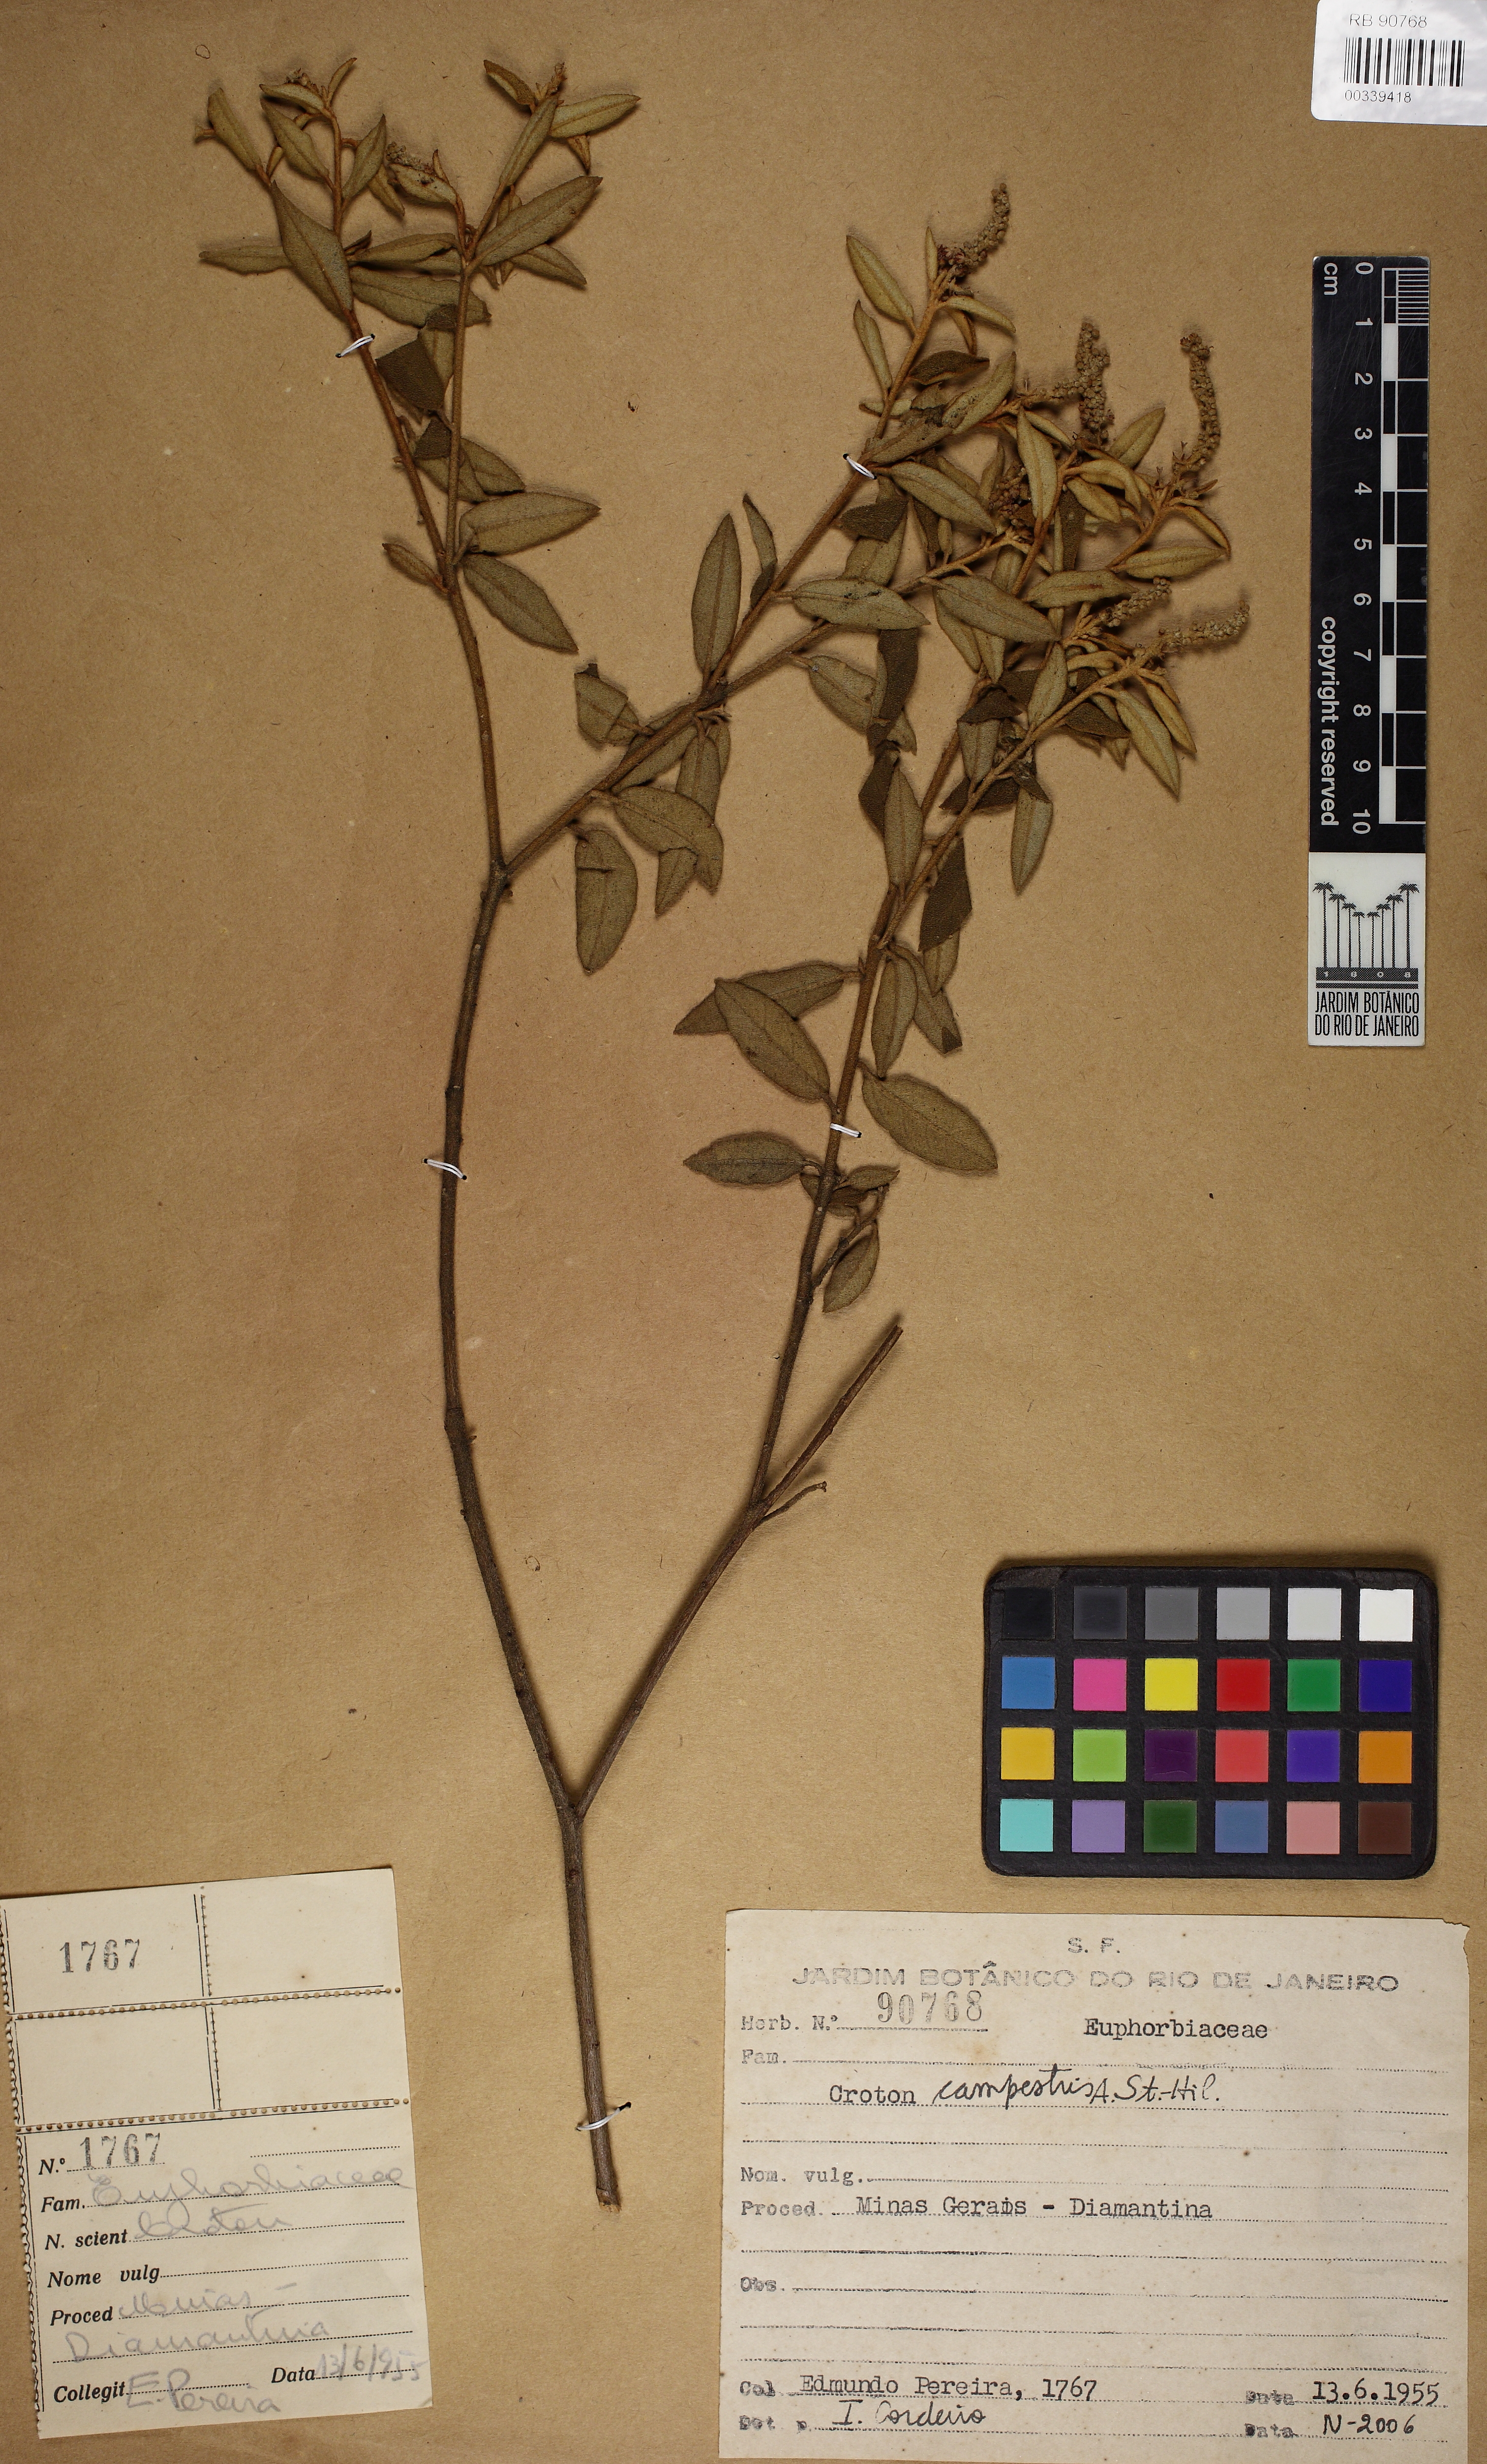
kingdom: Plantae
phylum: Tracheophyta
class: Magnoliopsida
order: Malpighiales
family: Euphorbiaceae
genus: Croton
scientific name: Croton campestris
